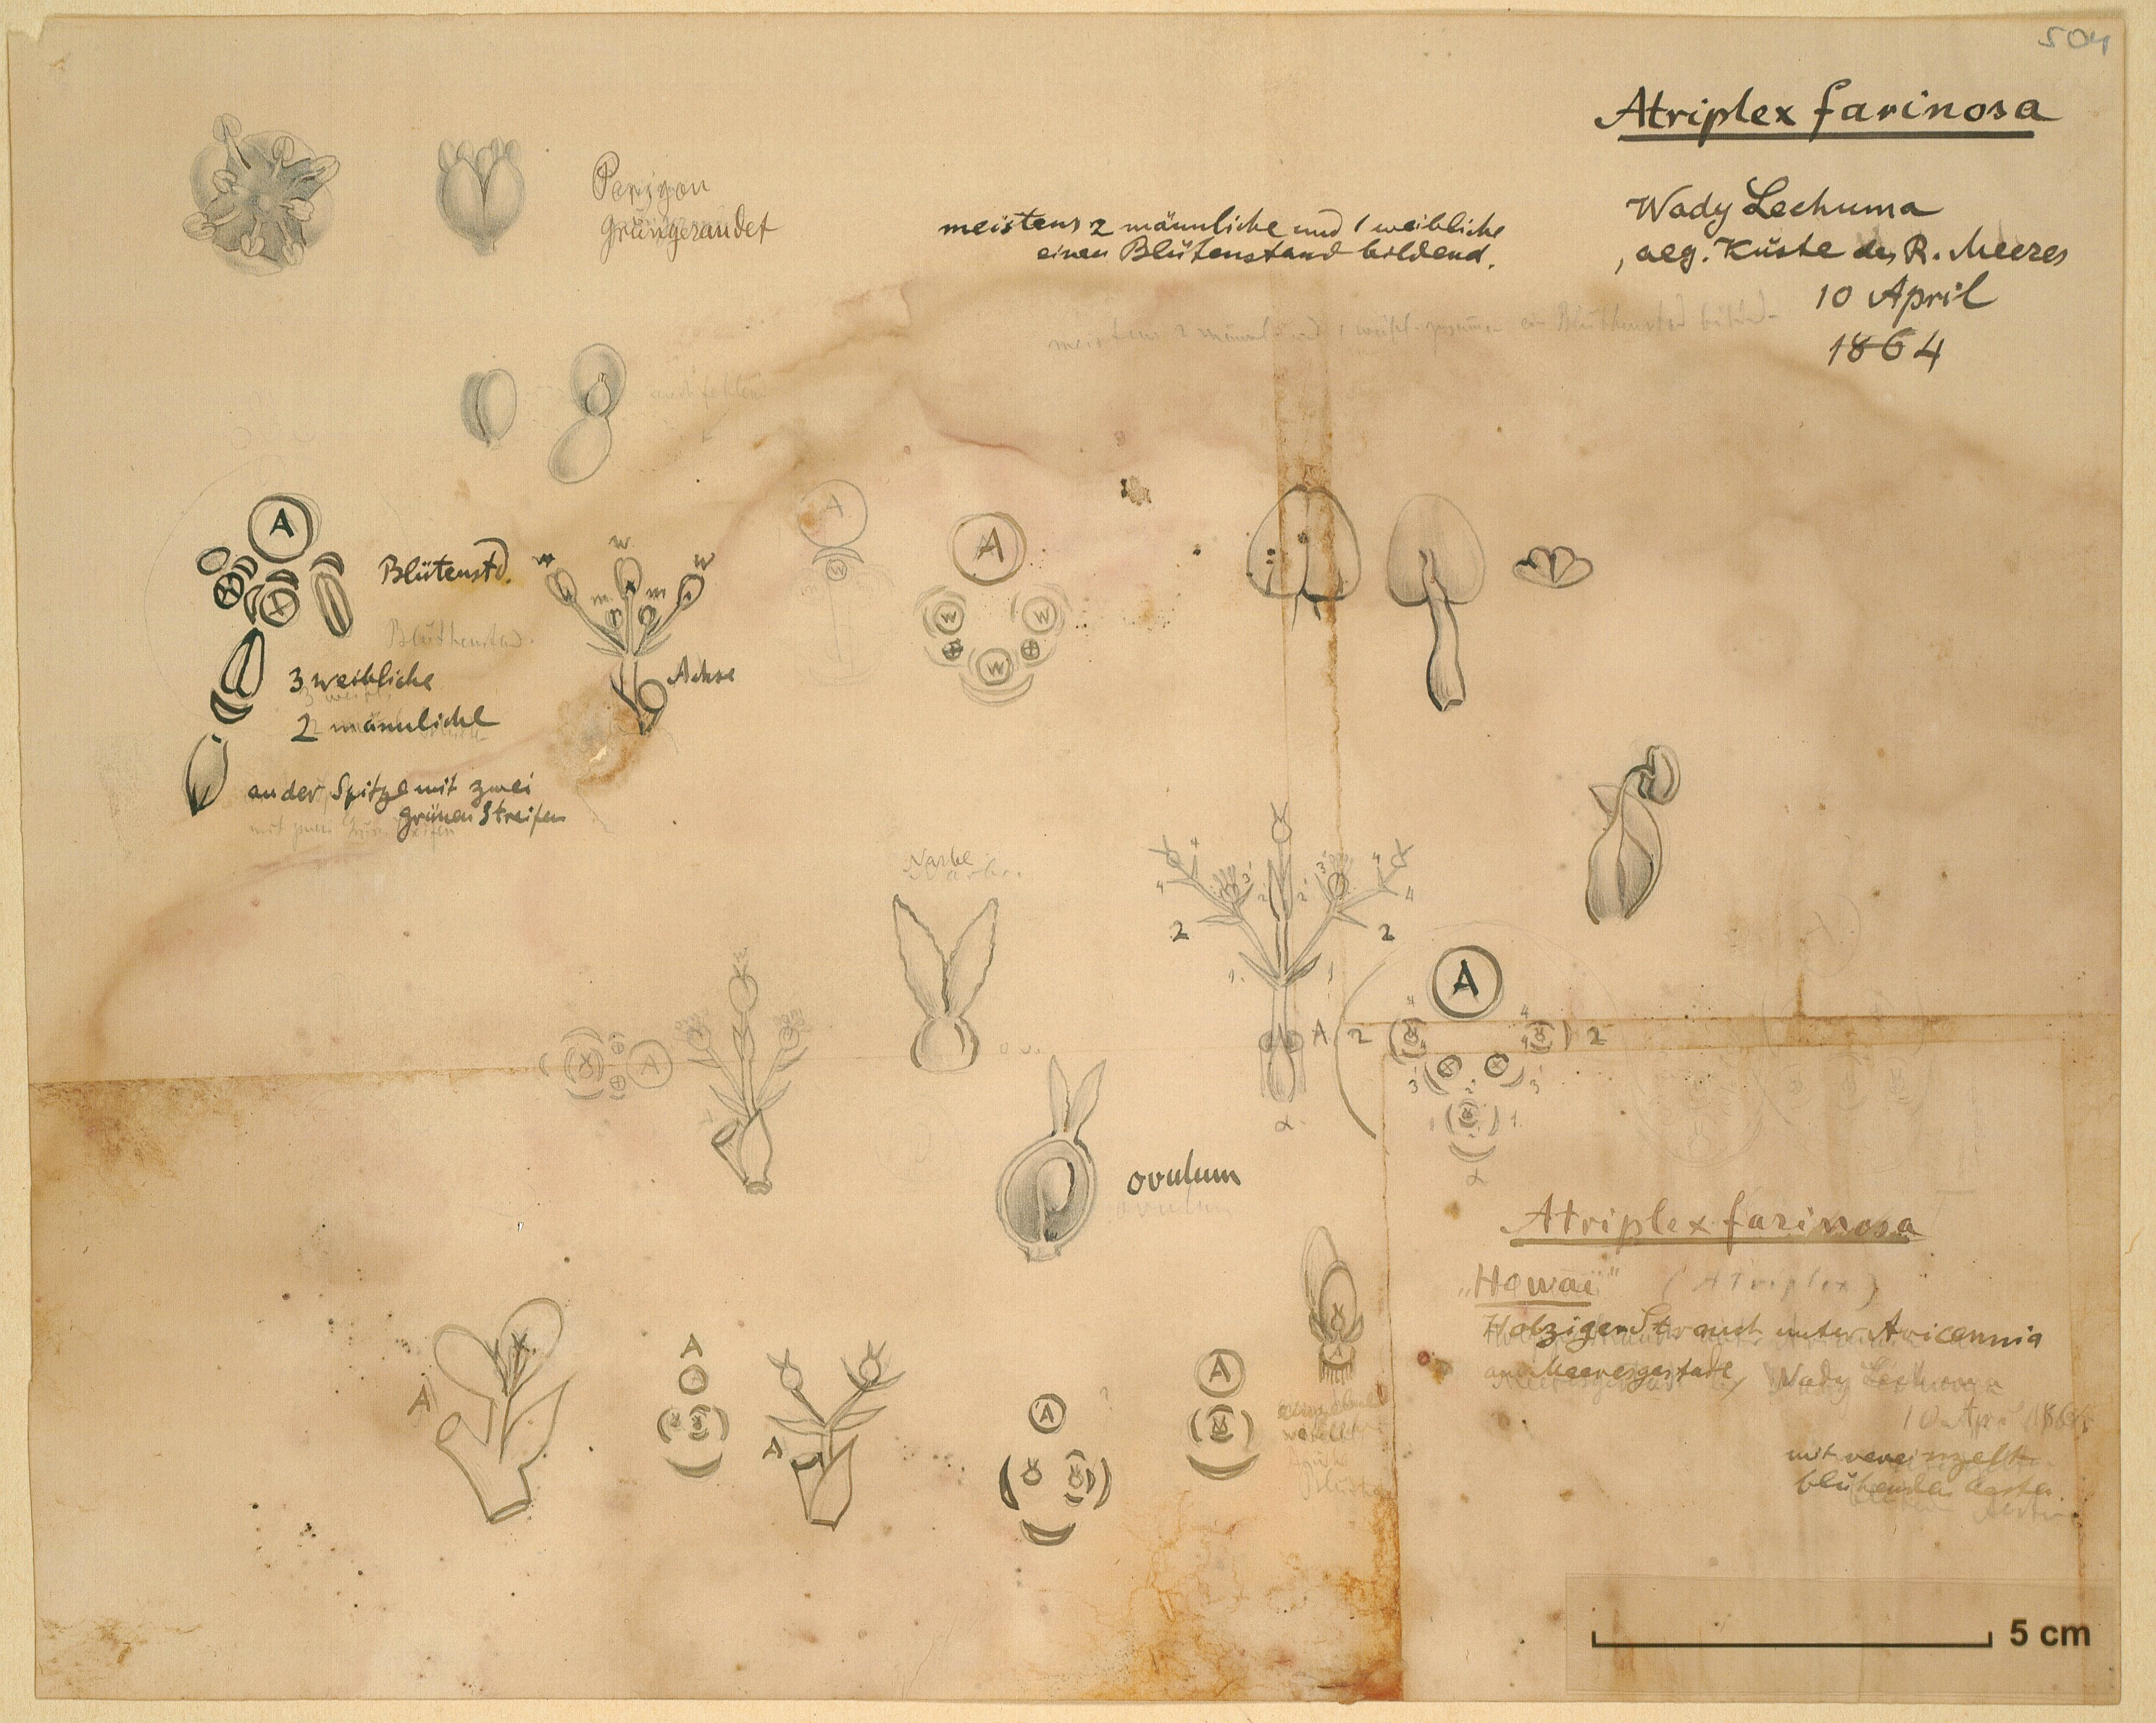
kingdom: Plantae
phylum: Tracheophyta
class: Magnoliopsida
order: Caryophyllales
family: Amaranthaceae
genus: Atriplex
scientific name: Atriplex farinosa
